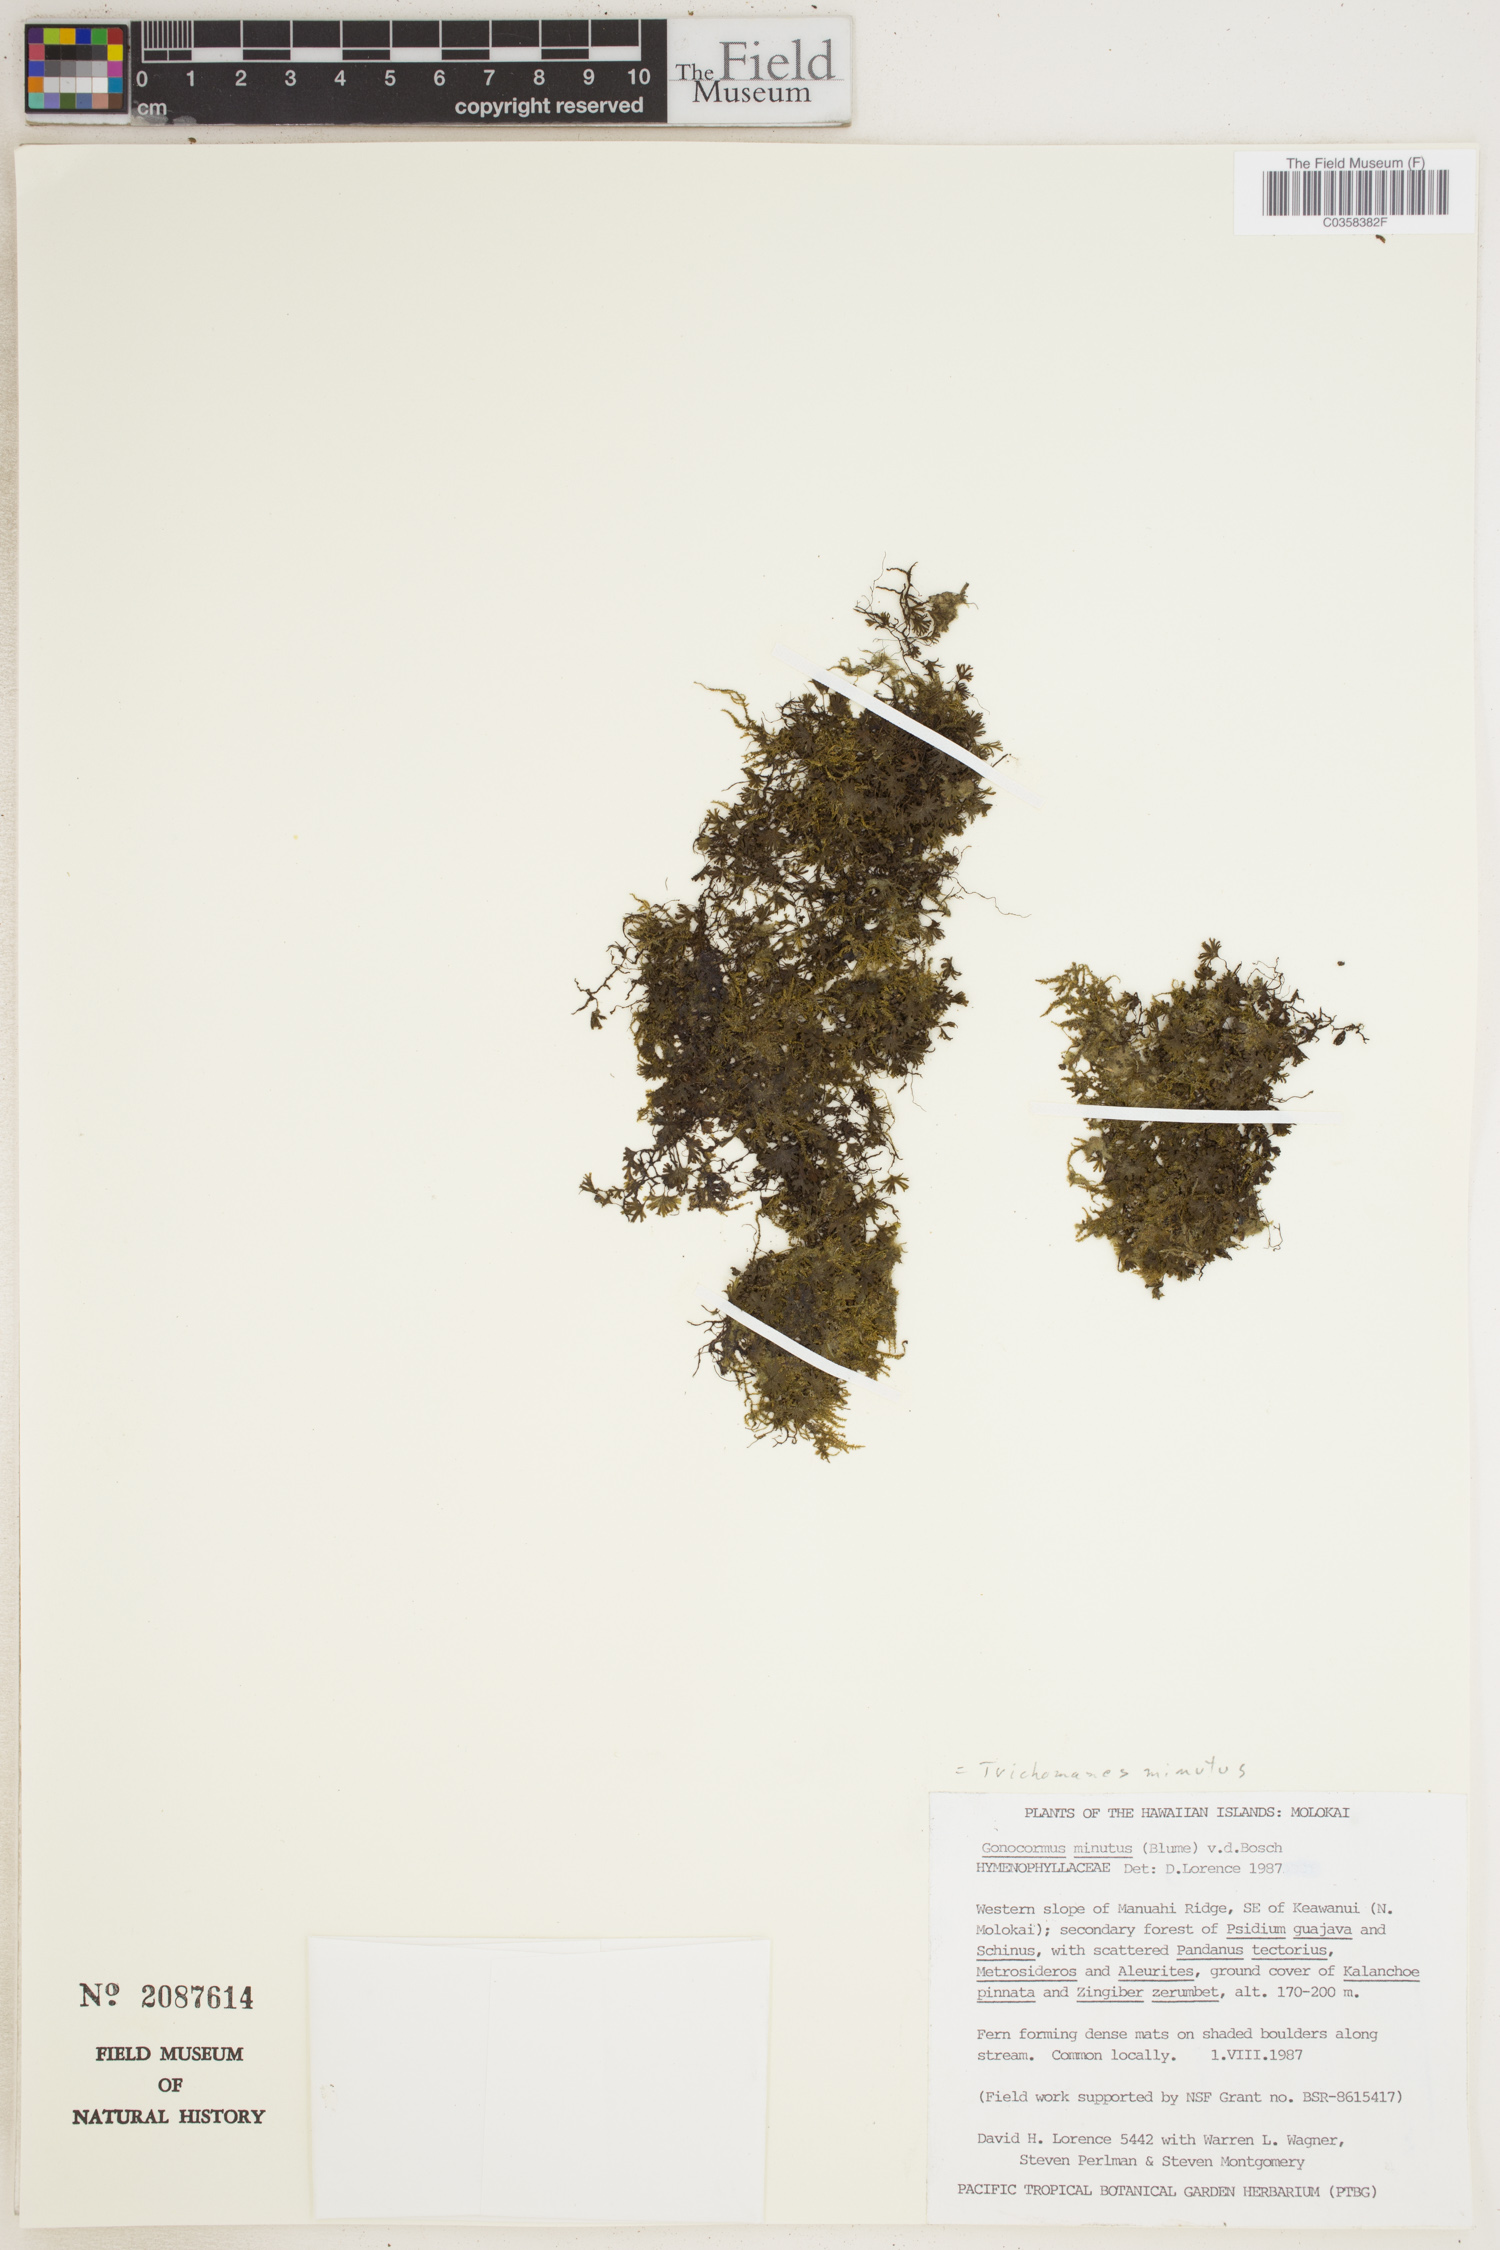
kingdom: Plantae
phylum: Tracheophyta
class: Polypodiopsida
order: Hymenophyllales
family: Hymenophyllaceae
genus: Crepidomanes
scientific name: Crepidomanes parvulum
